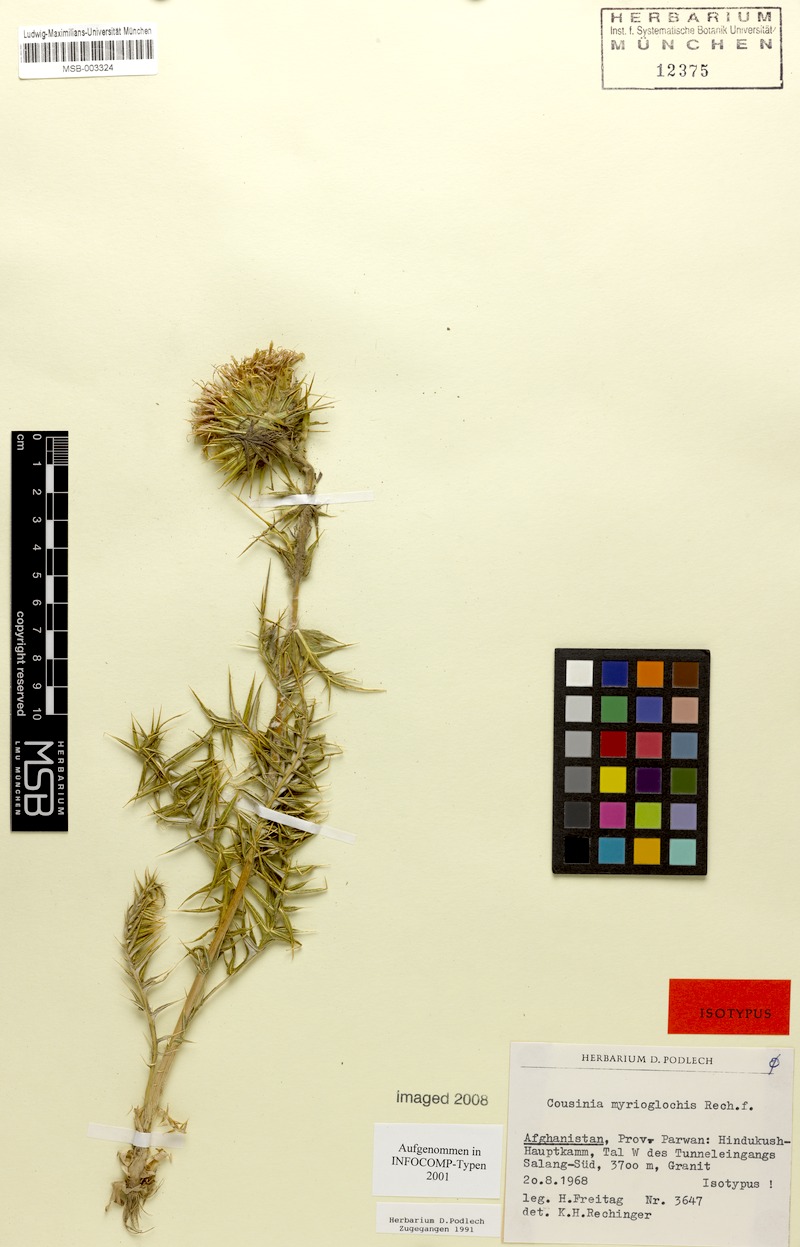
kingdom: Plantae
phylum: Tracheophyta
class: Magnoliopsida
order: Asterales
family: Asteraceae
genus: Cousinia
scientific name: Cousinia myrioglochis
